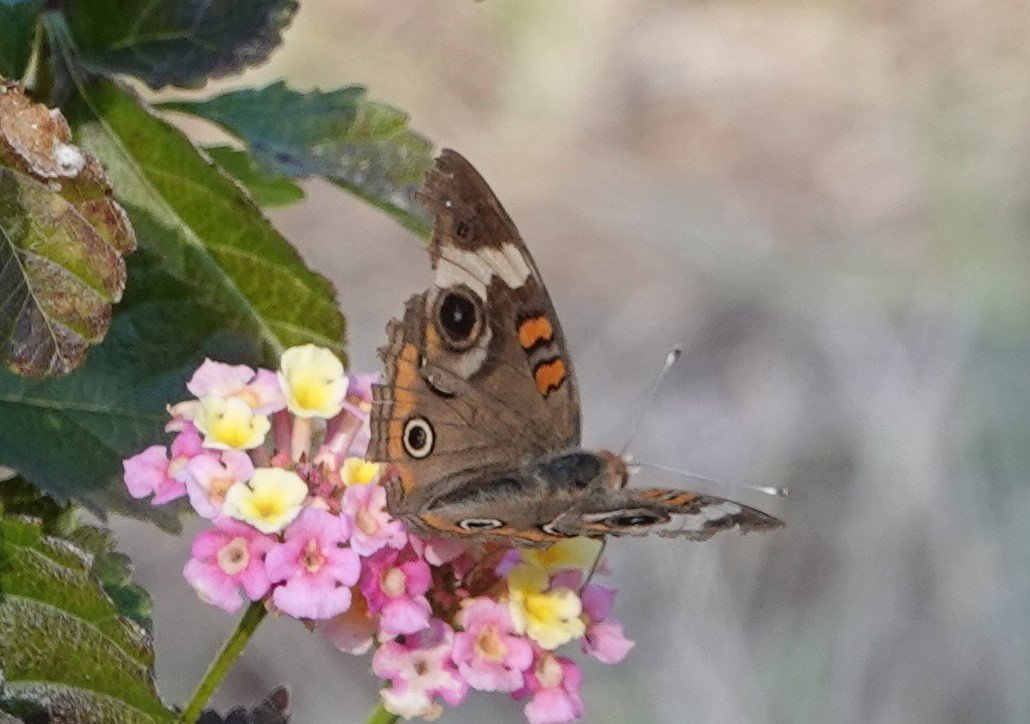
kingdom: Animalia
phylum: Arthropoda
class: Insecta
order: Lepidoptera
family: Nymphalidae
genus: Junonia
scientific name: Junonia coenia
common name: Common Buckeye
